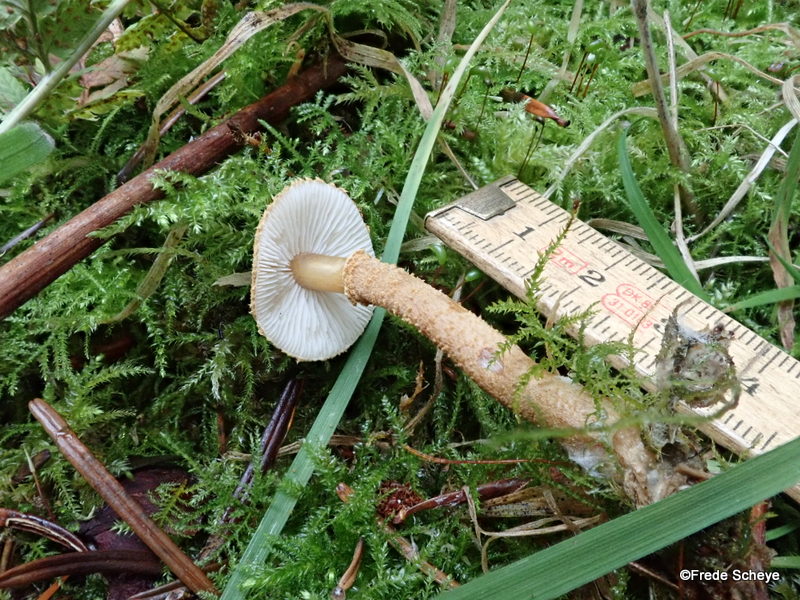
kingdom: Fungi
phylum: Basidiomycota
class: Agaricomycetes
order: Agaricales
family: Tricholomataceae
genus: Cystoderma
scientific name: Cystoderma amianthinum
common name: okkergul grynhat
